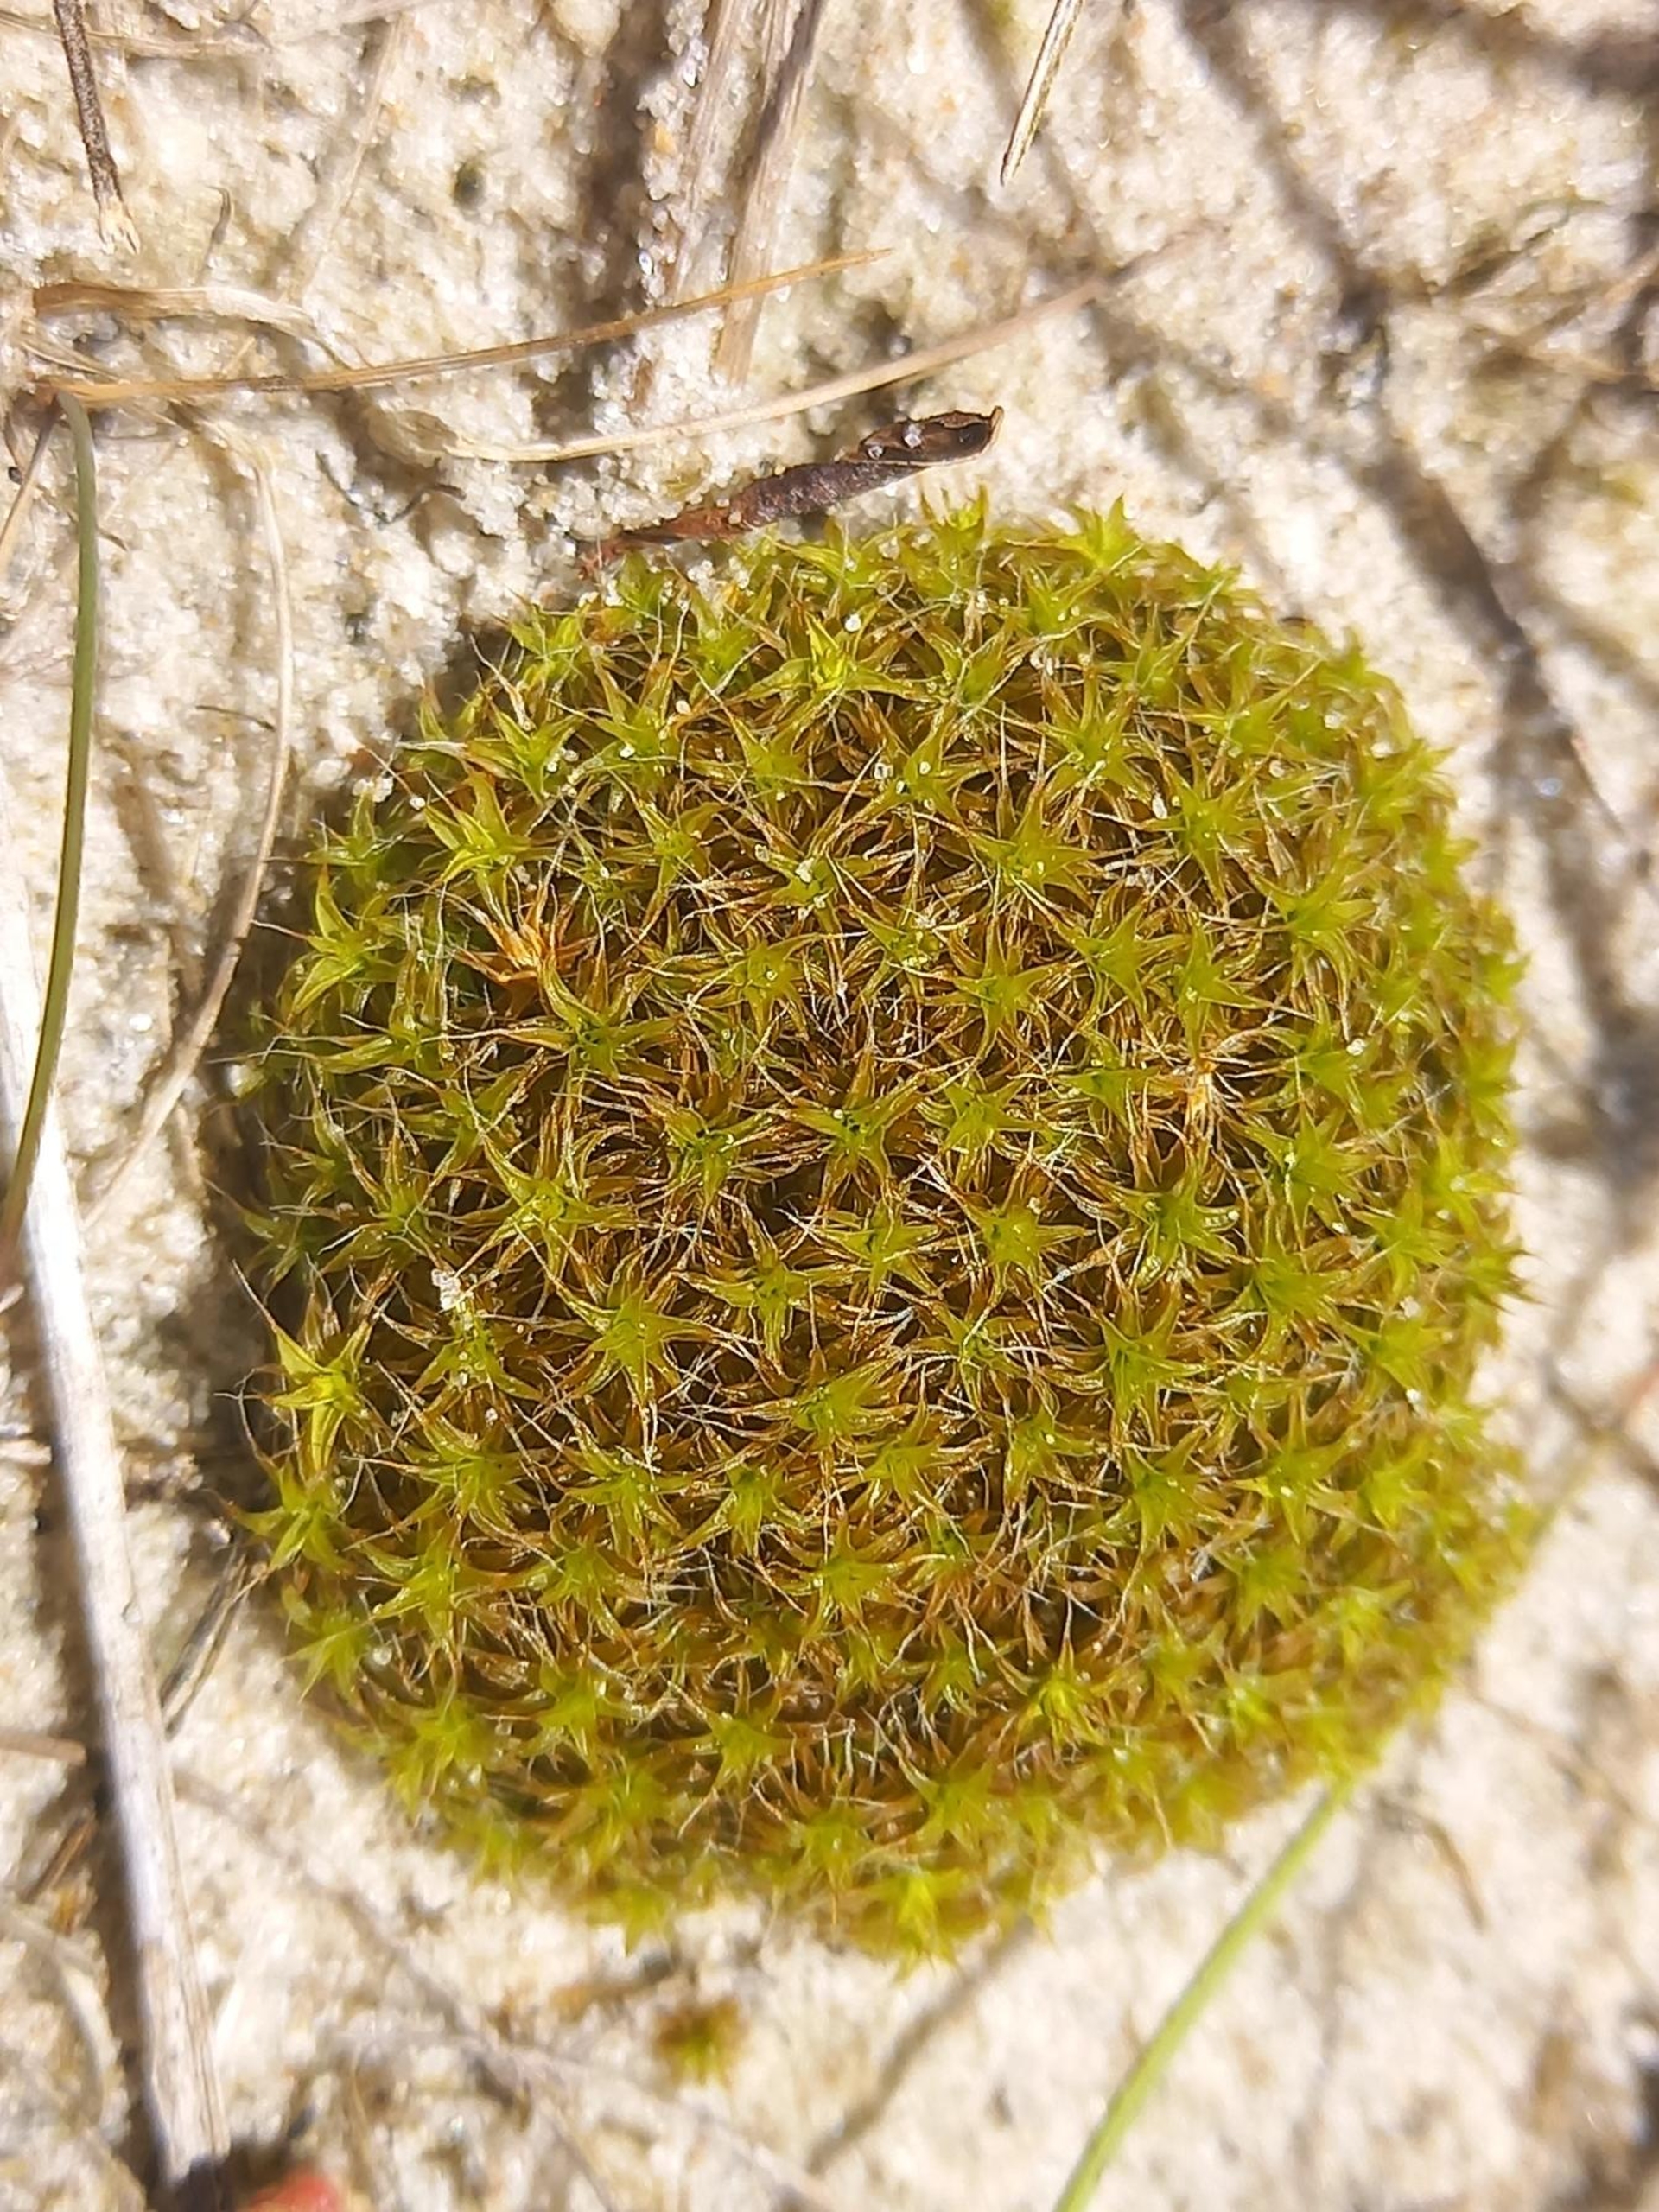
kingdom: Plantae
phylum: Bryophyta
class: Bryopsida
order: Pottiales
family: Pottiaceae
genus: Syntrichia
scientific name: Syntrichia ruralis
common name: Spidsbladet hårstjerne
